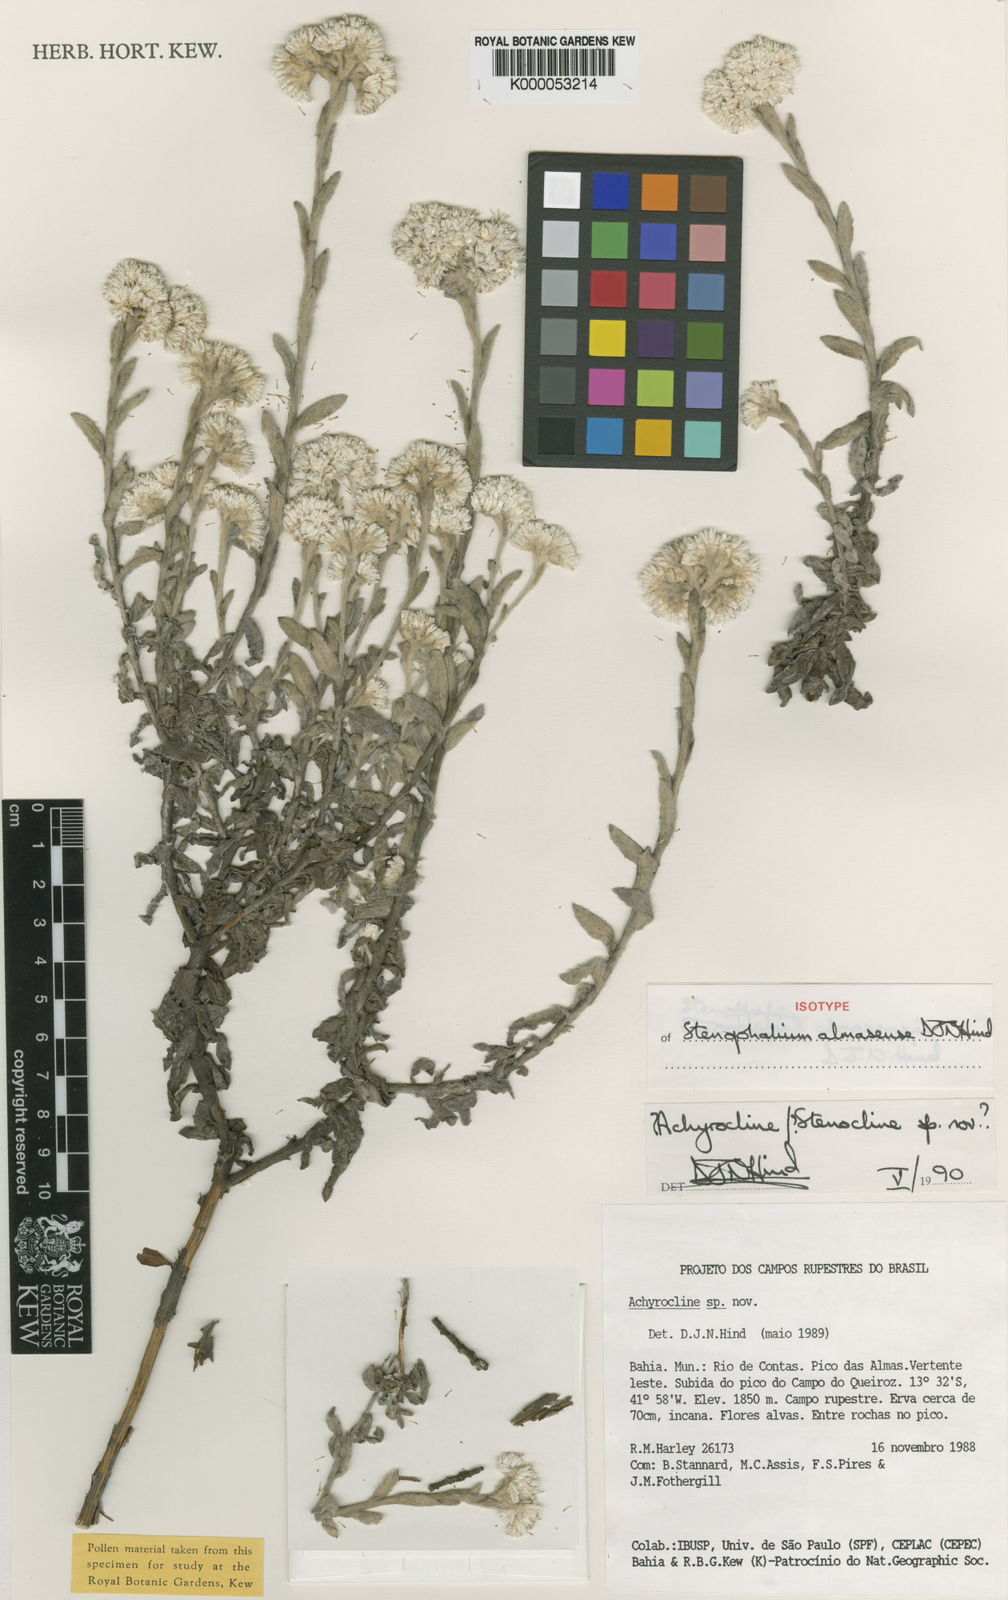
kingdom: Plantae
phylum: Tracheophyta
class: Magnoliopsida
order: Asterales
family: Asteraceae
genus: Achyrocline
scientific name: Achyrocline eriodes
